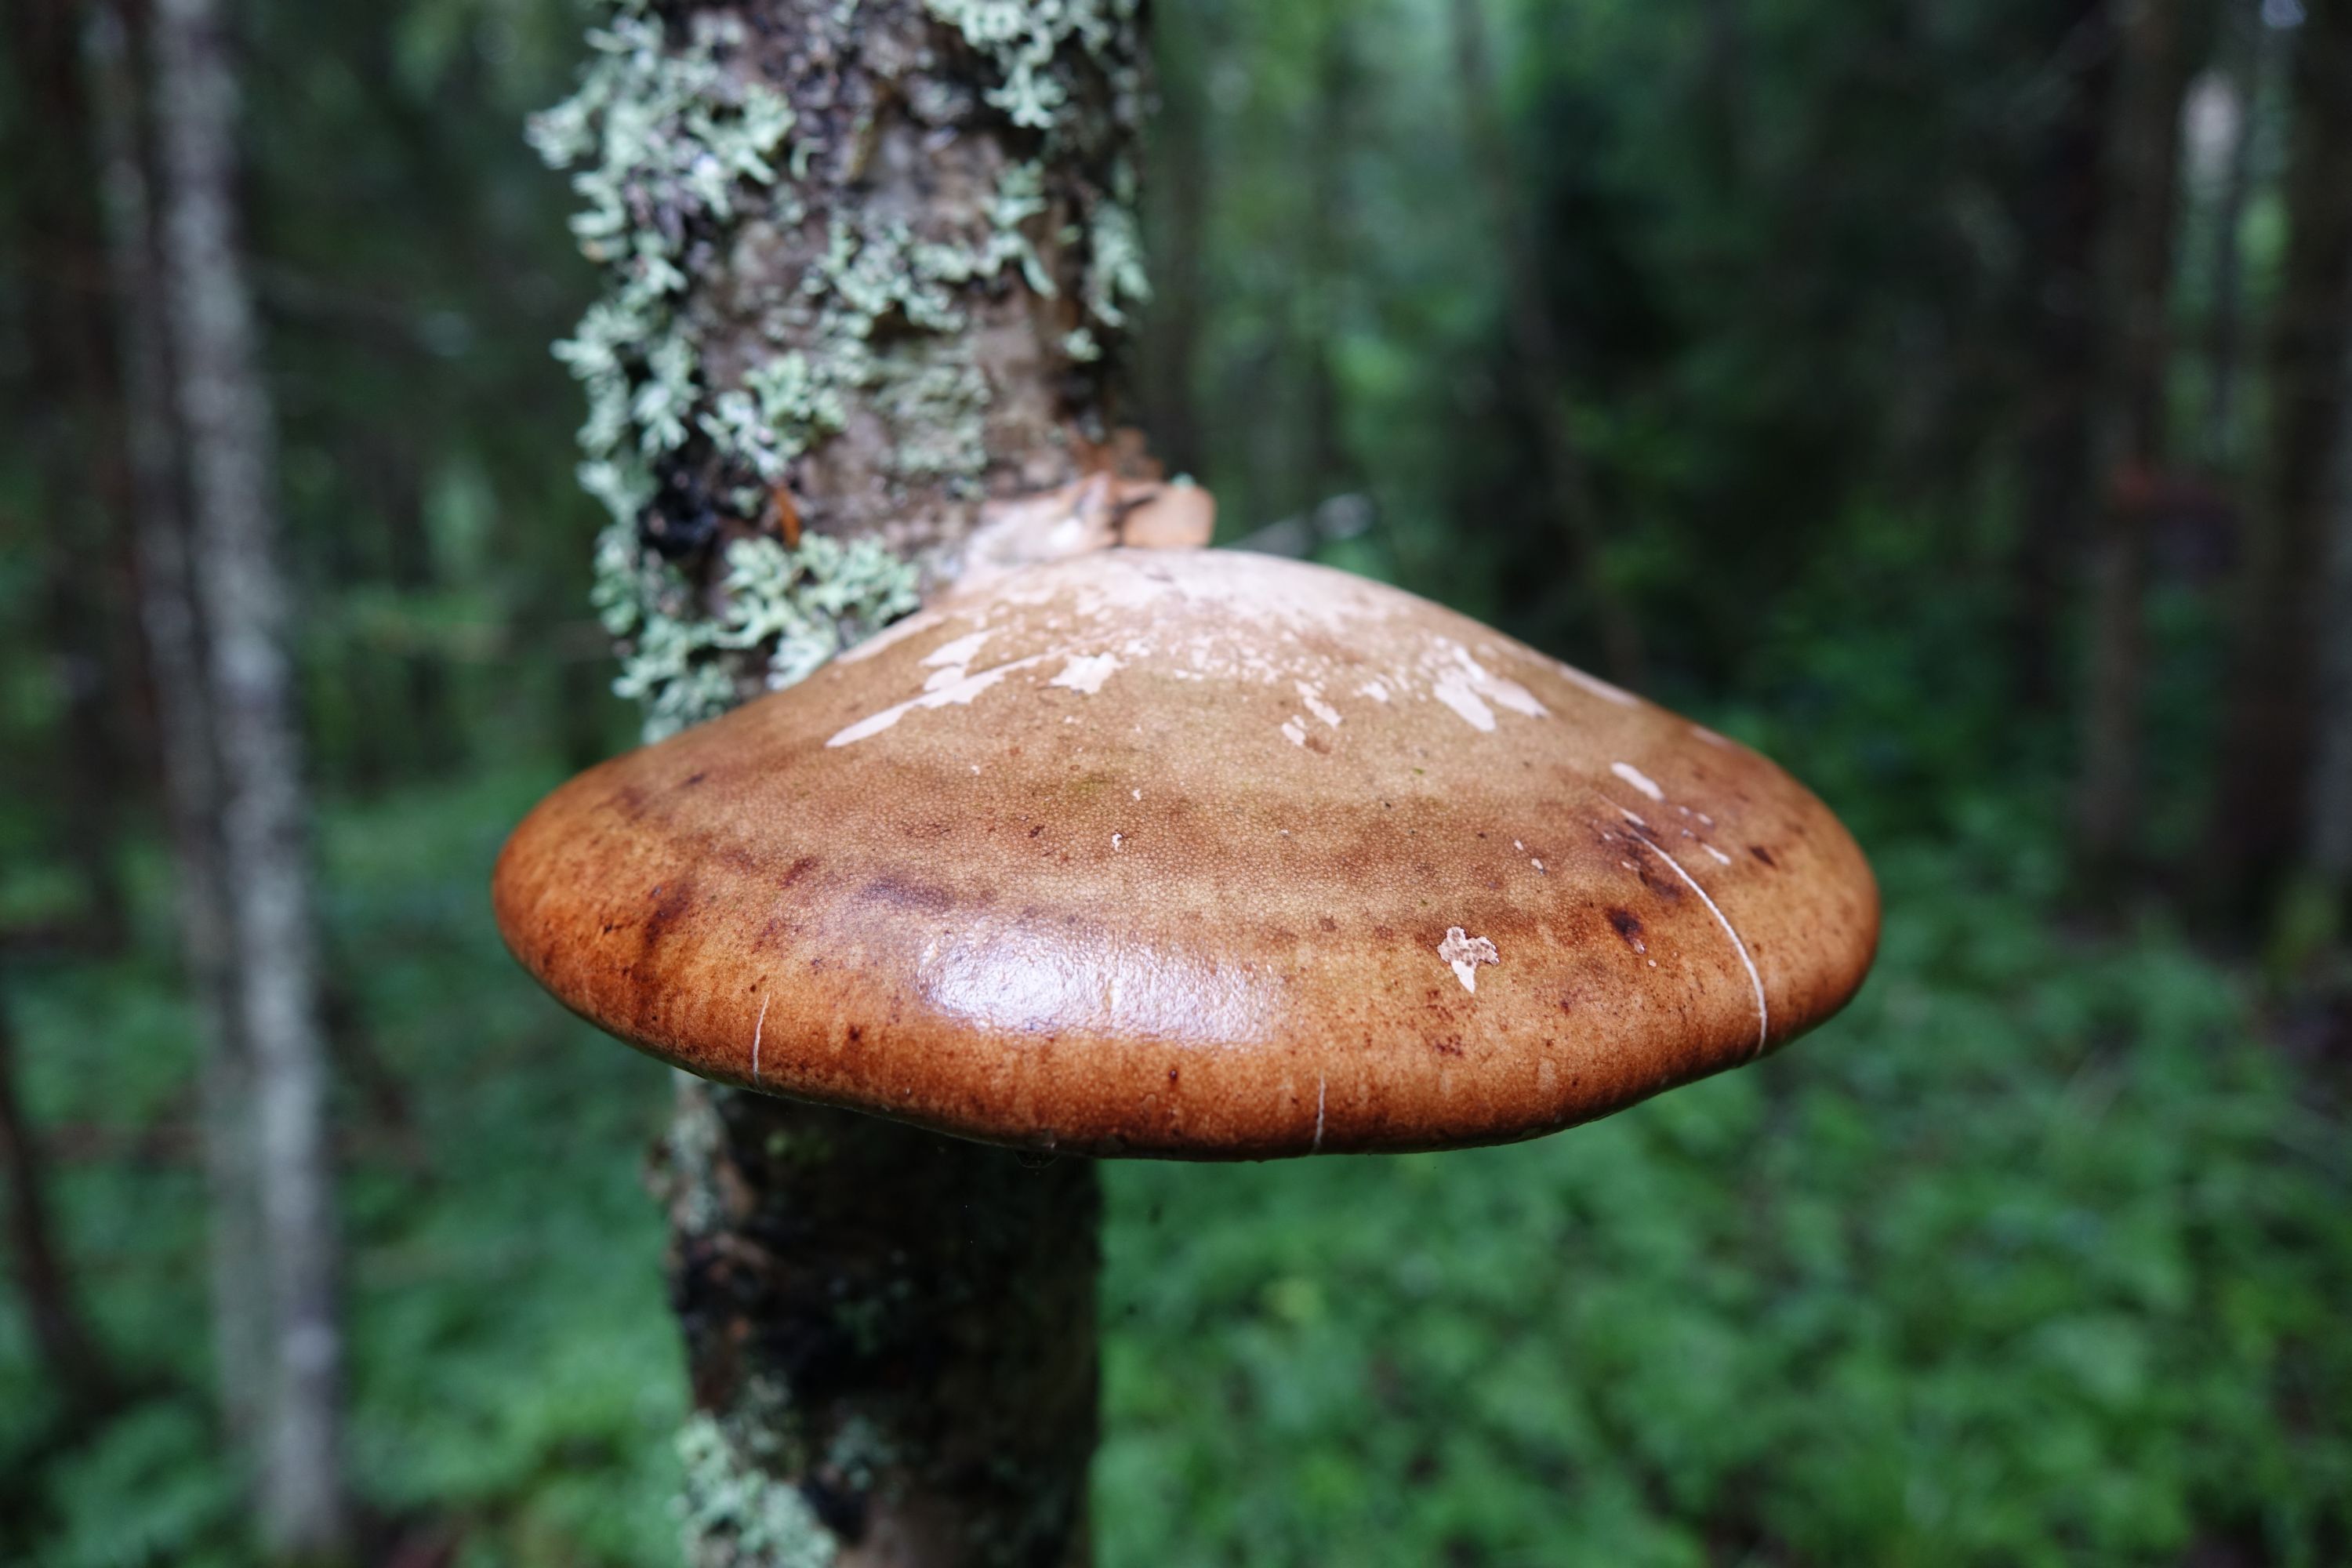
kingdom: Fungi
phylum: Basidiomycota
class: Agaricomycetes
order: Polyporales
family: Fomitopsidaceae
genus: Fomitopsis
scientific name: Fomitopsis betulina
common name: Birch polypore
